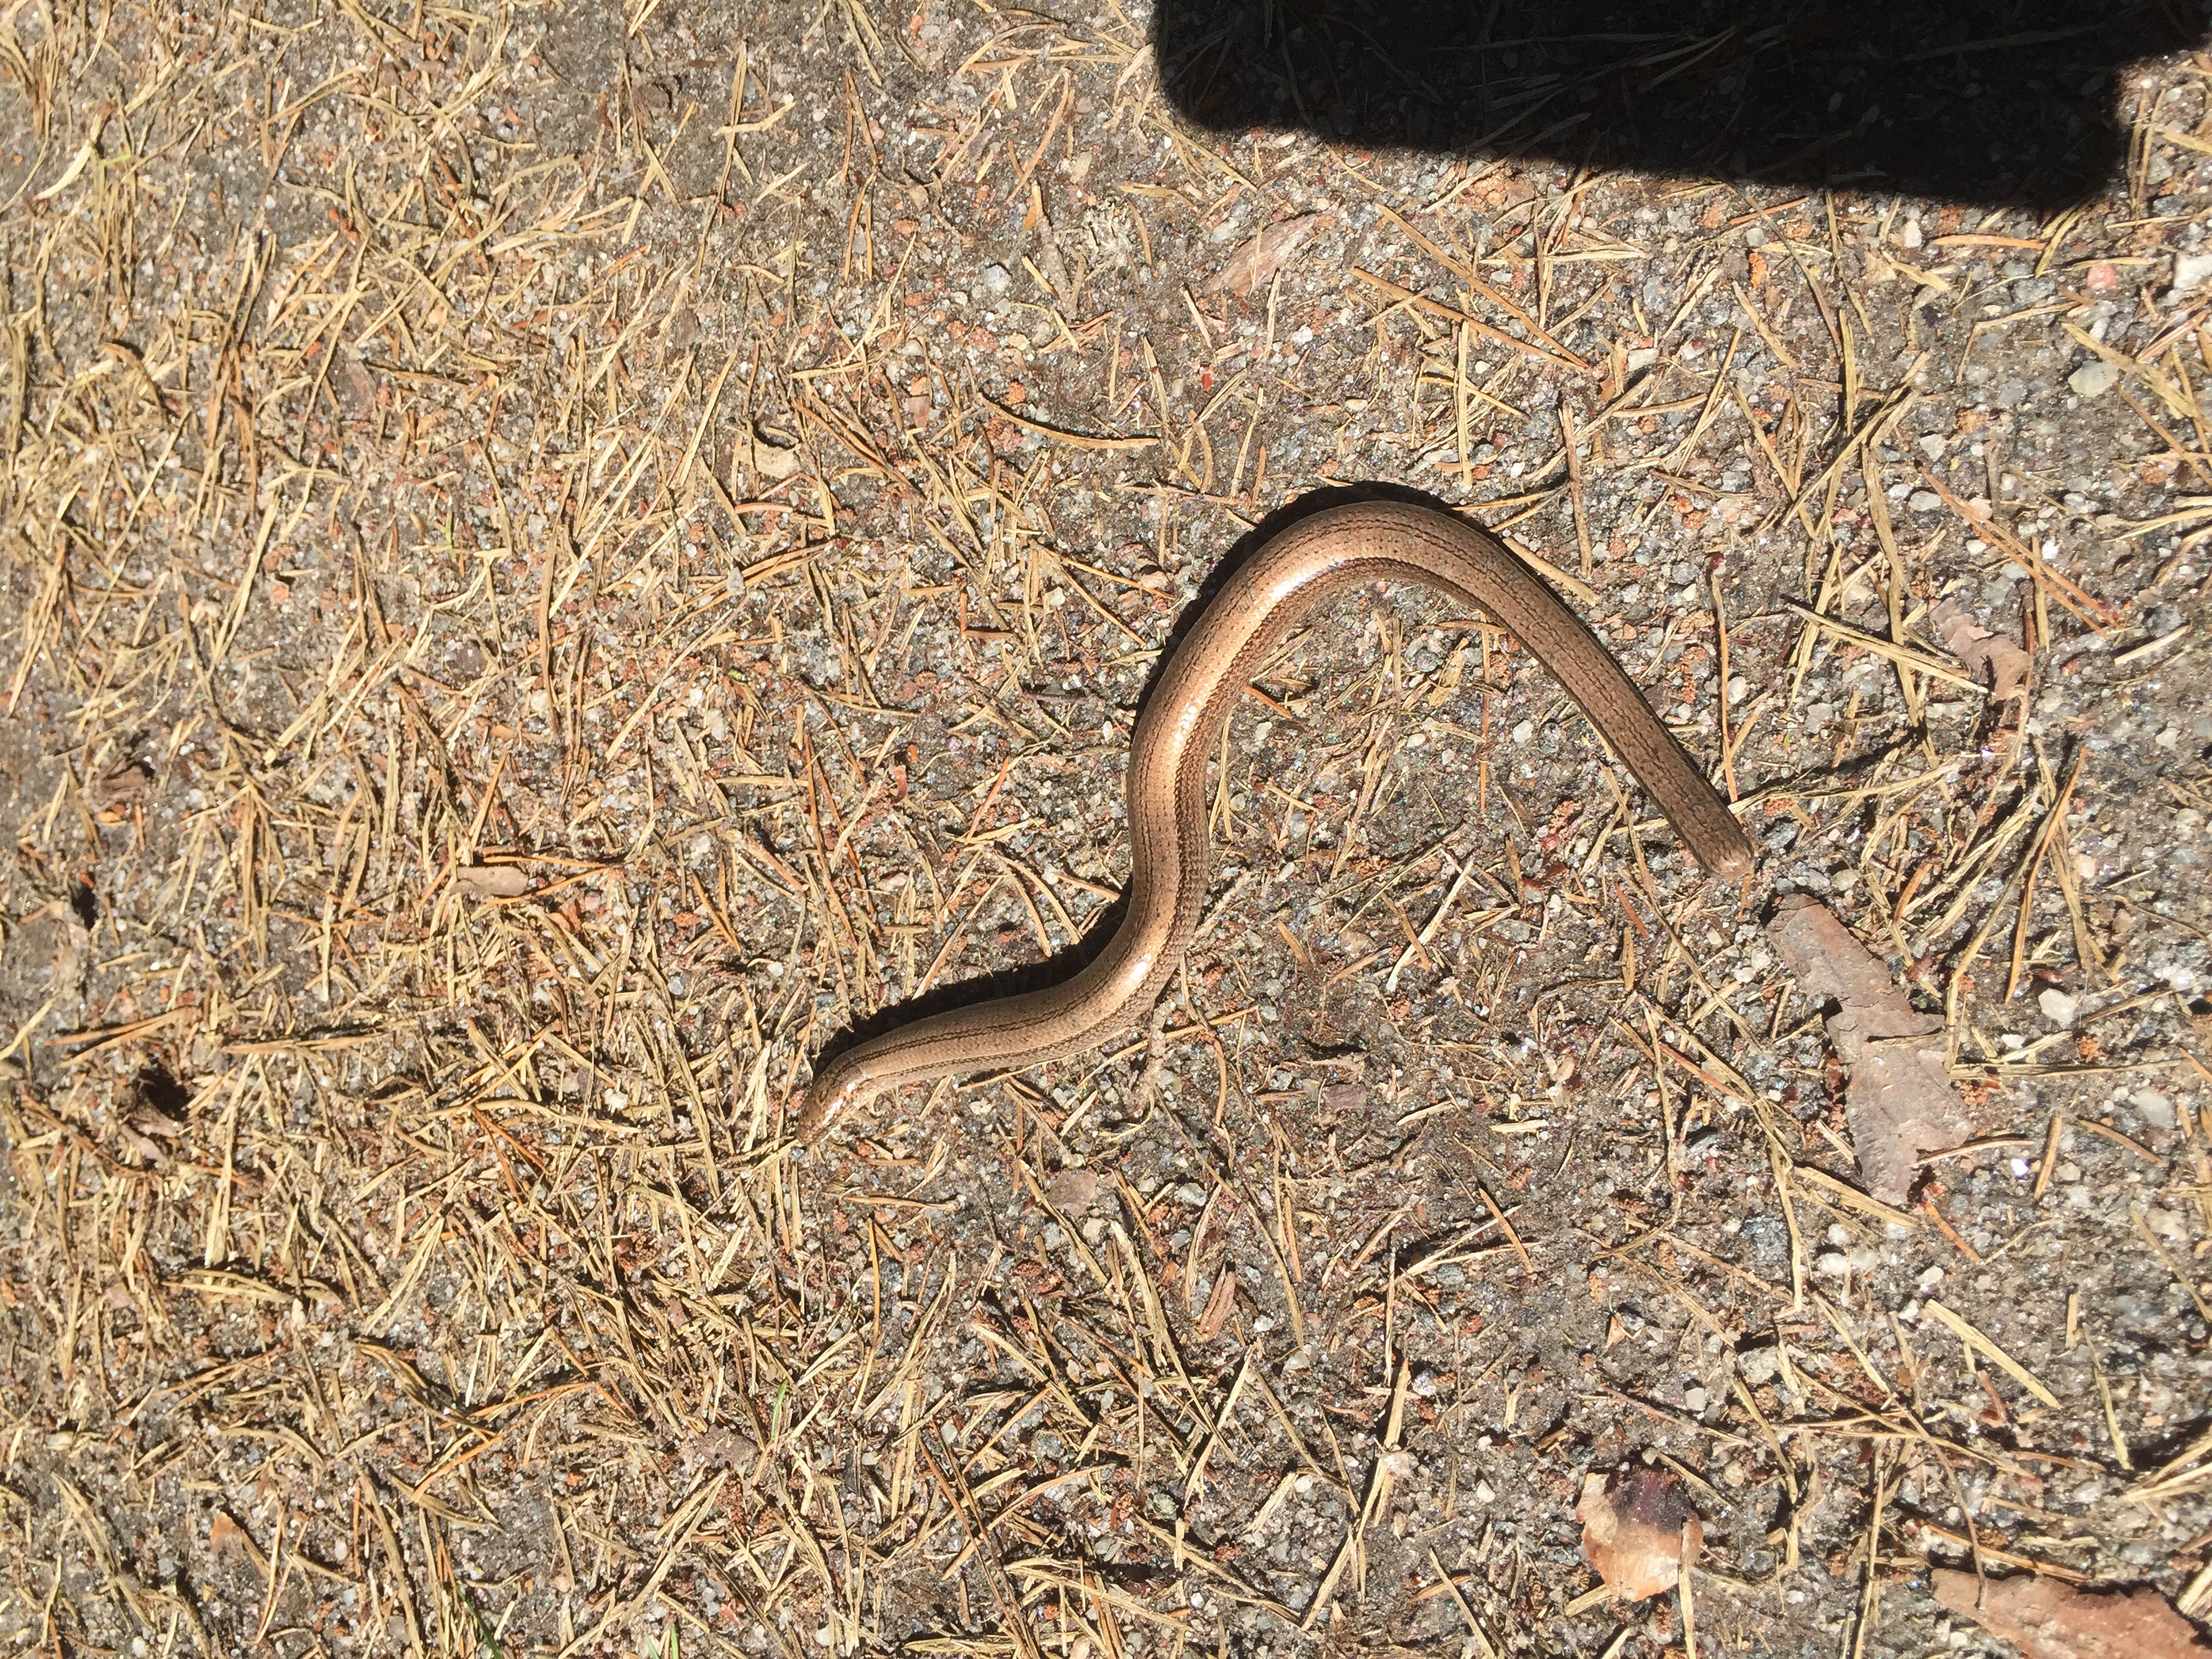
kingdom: Animalia
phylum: Chordata
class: Squamata
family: Anguidae
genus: Anguis
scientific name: Anguis colchica
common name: Slow worm
